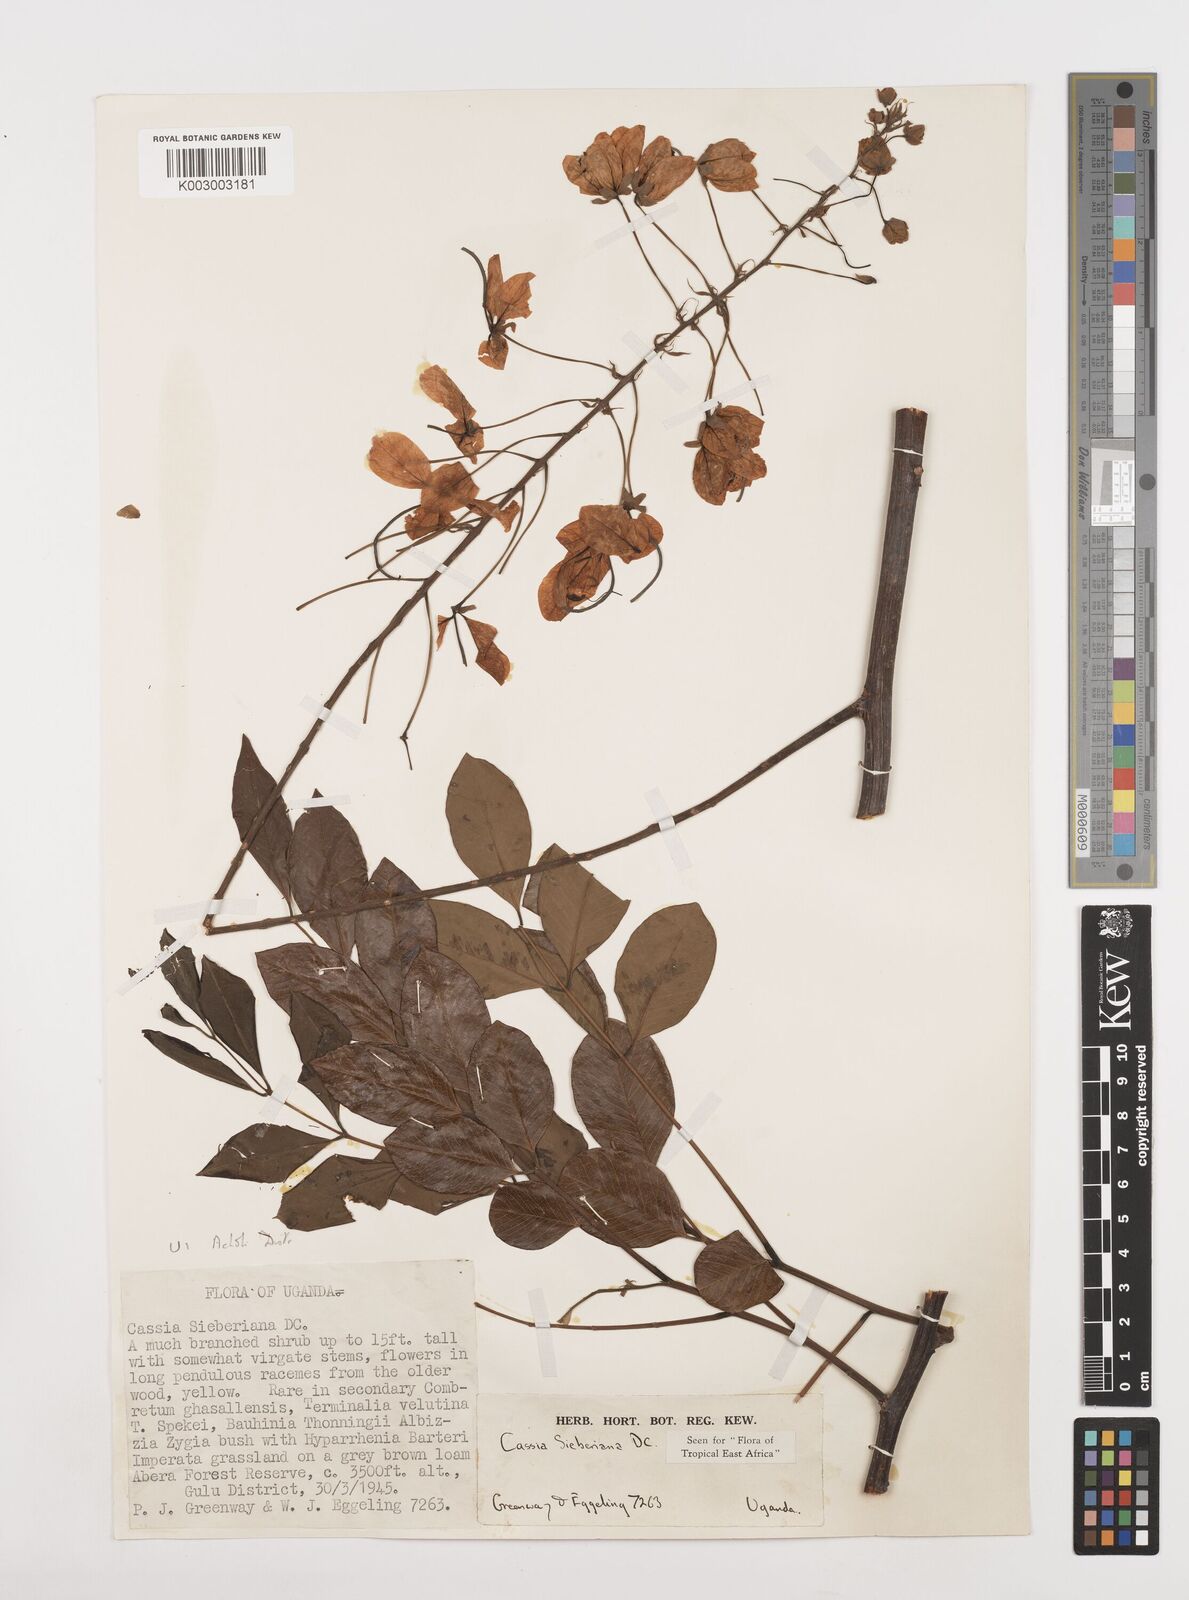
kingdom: Plantae
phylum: Tracheophyta
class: Magnoliopsida
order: Fabales
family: Fabaceae
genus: Cassia
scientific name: Cassia sieberiana
